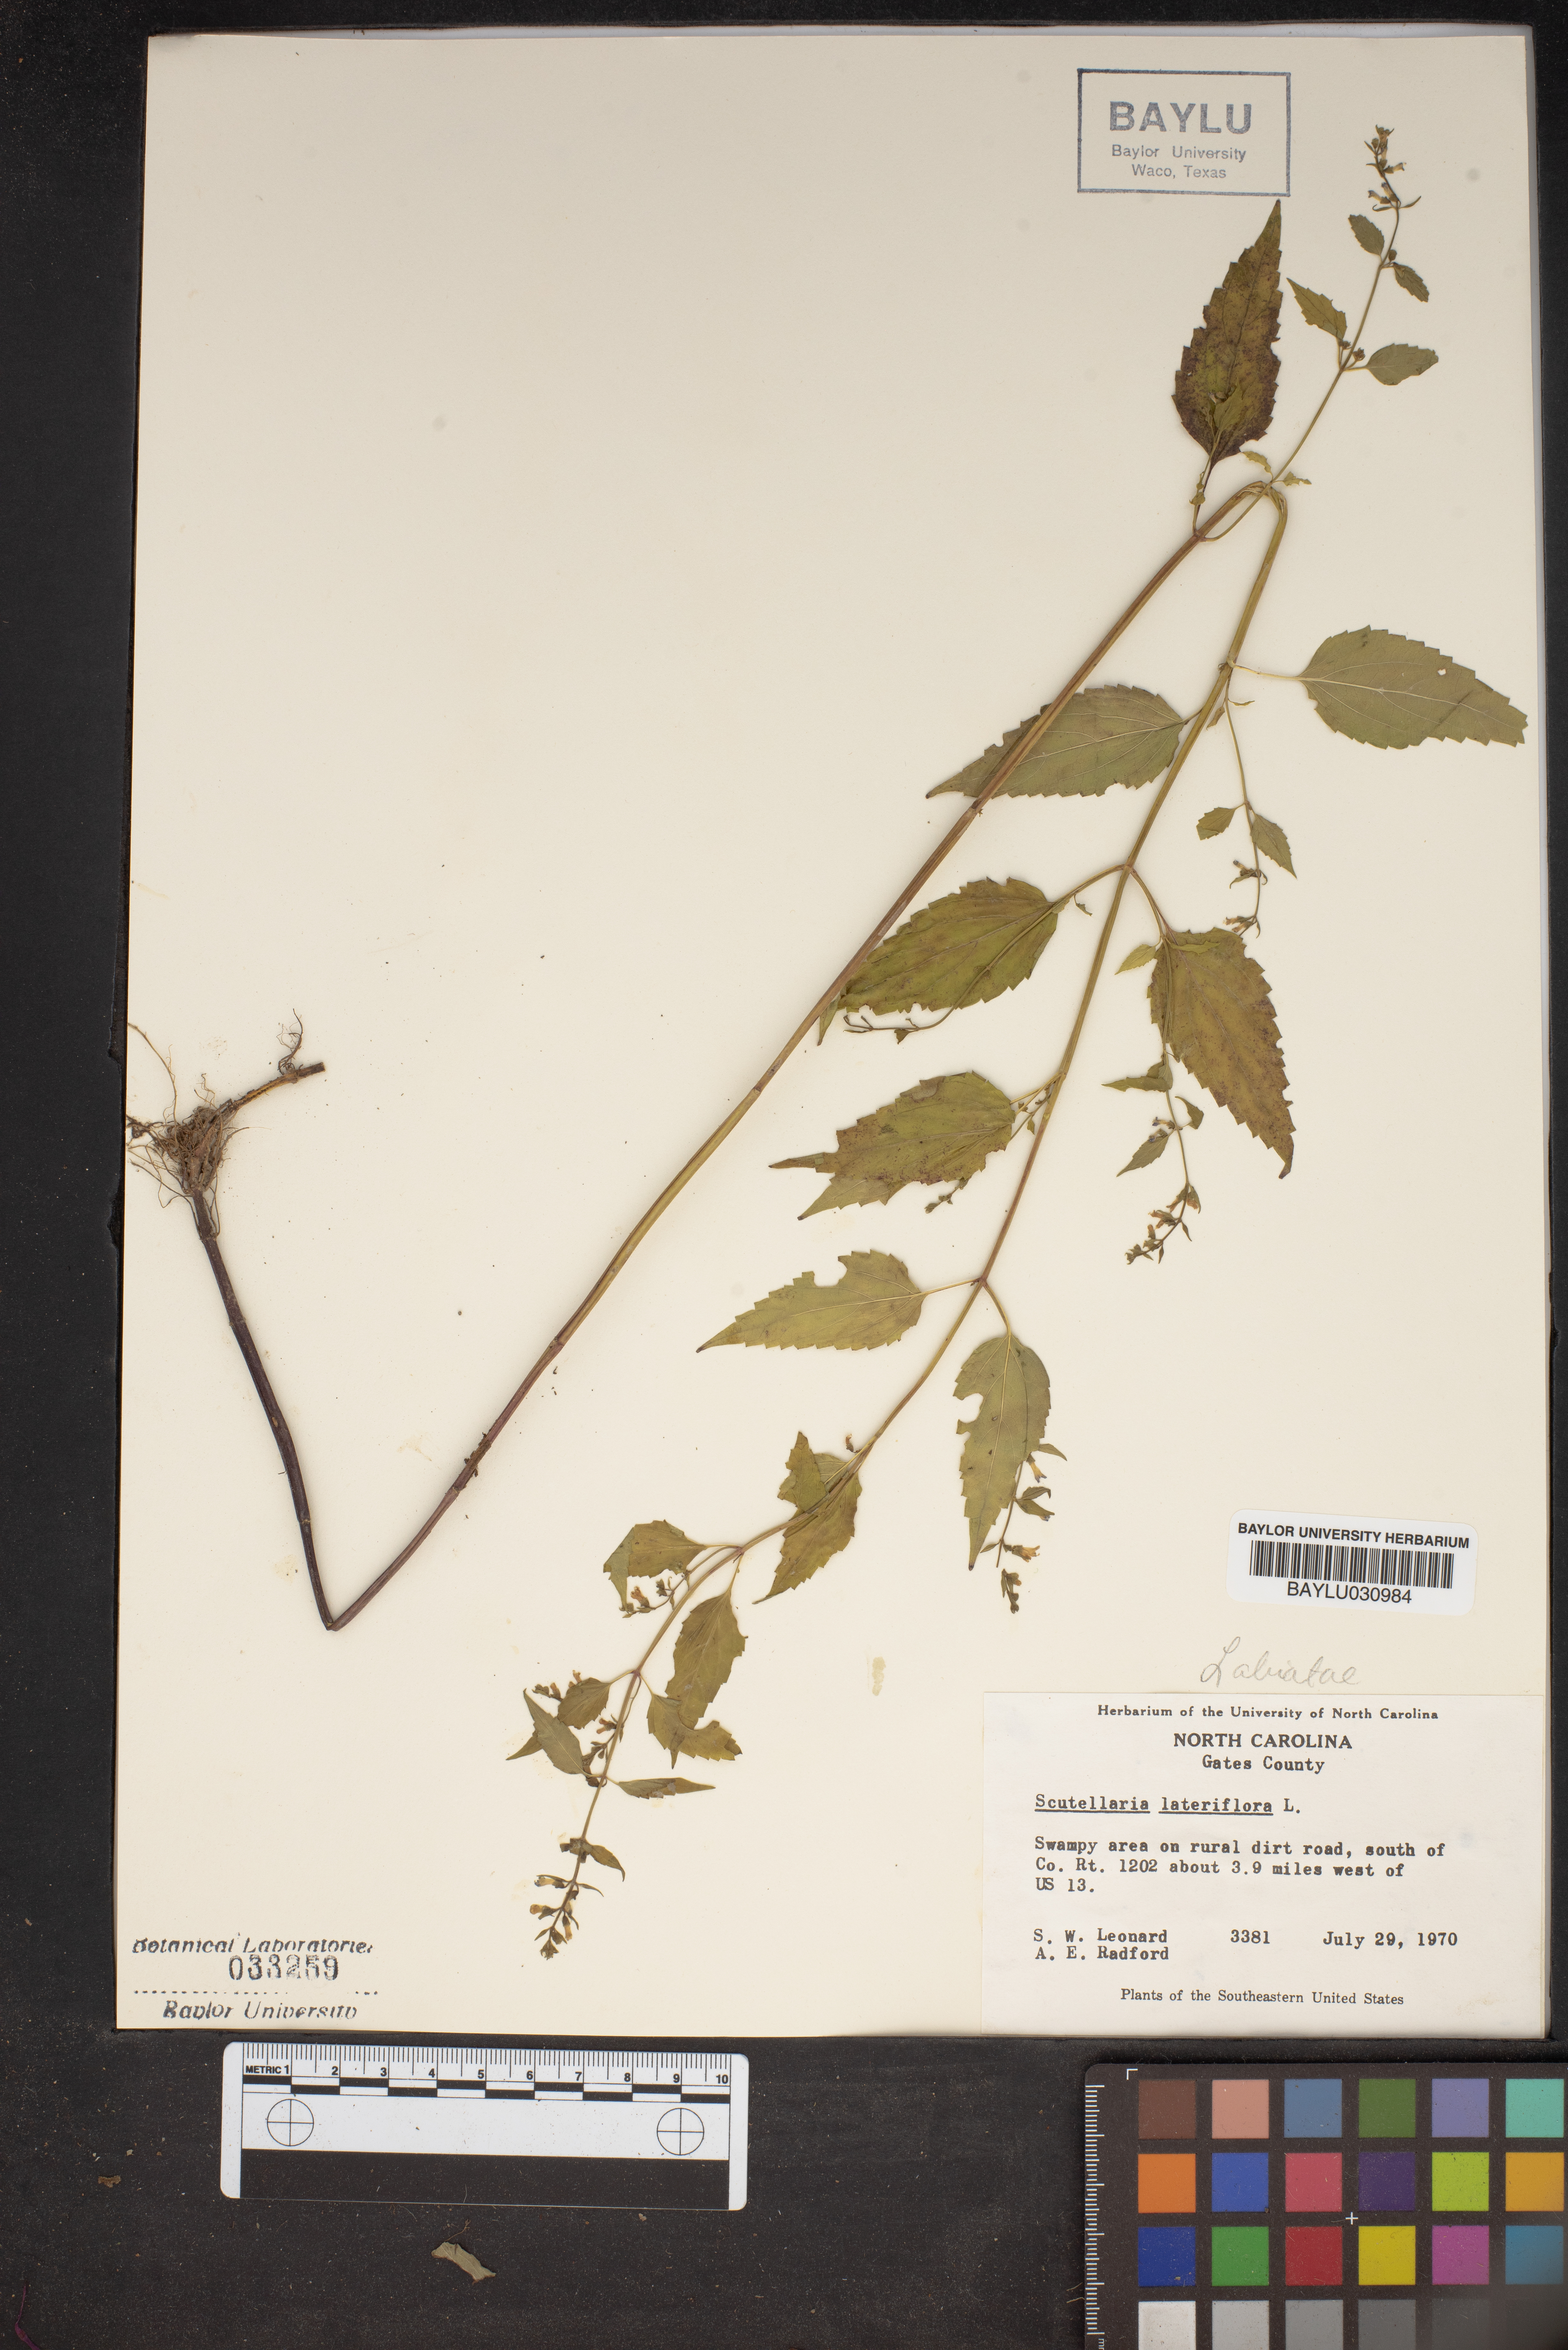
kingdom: Plantae
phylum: Tracheophyta
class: Magnoliopsida
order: Lamiales
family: Lamiaceae
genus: Scutellaria
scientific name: Scutellaria lateriflora
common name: Blue skullcap
